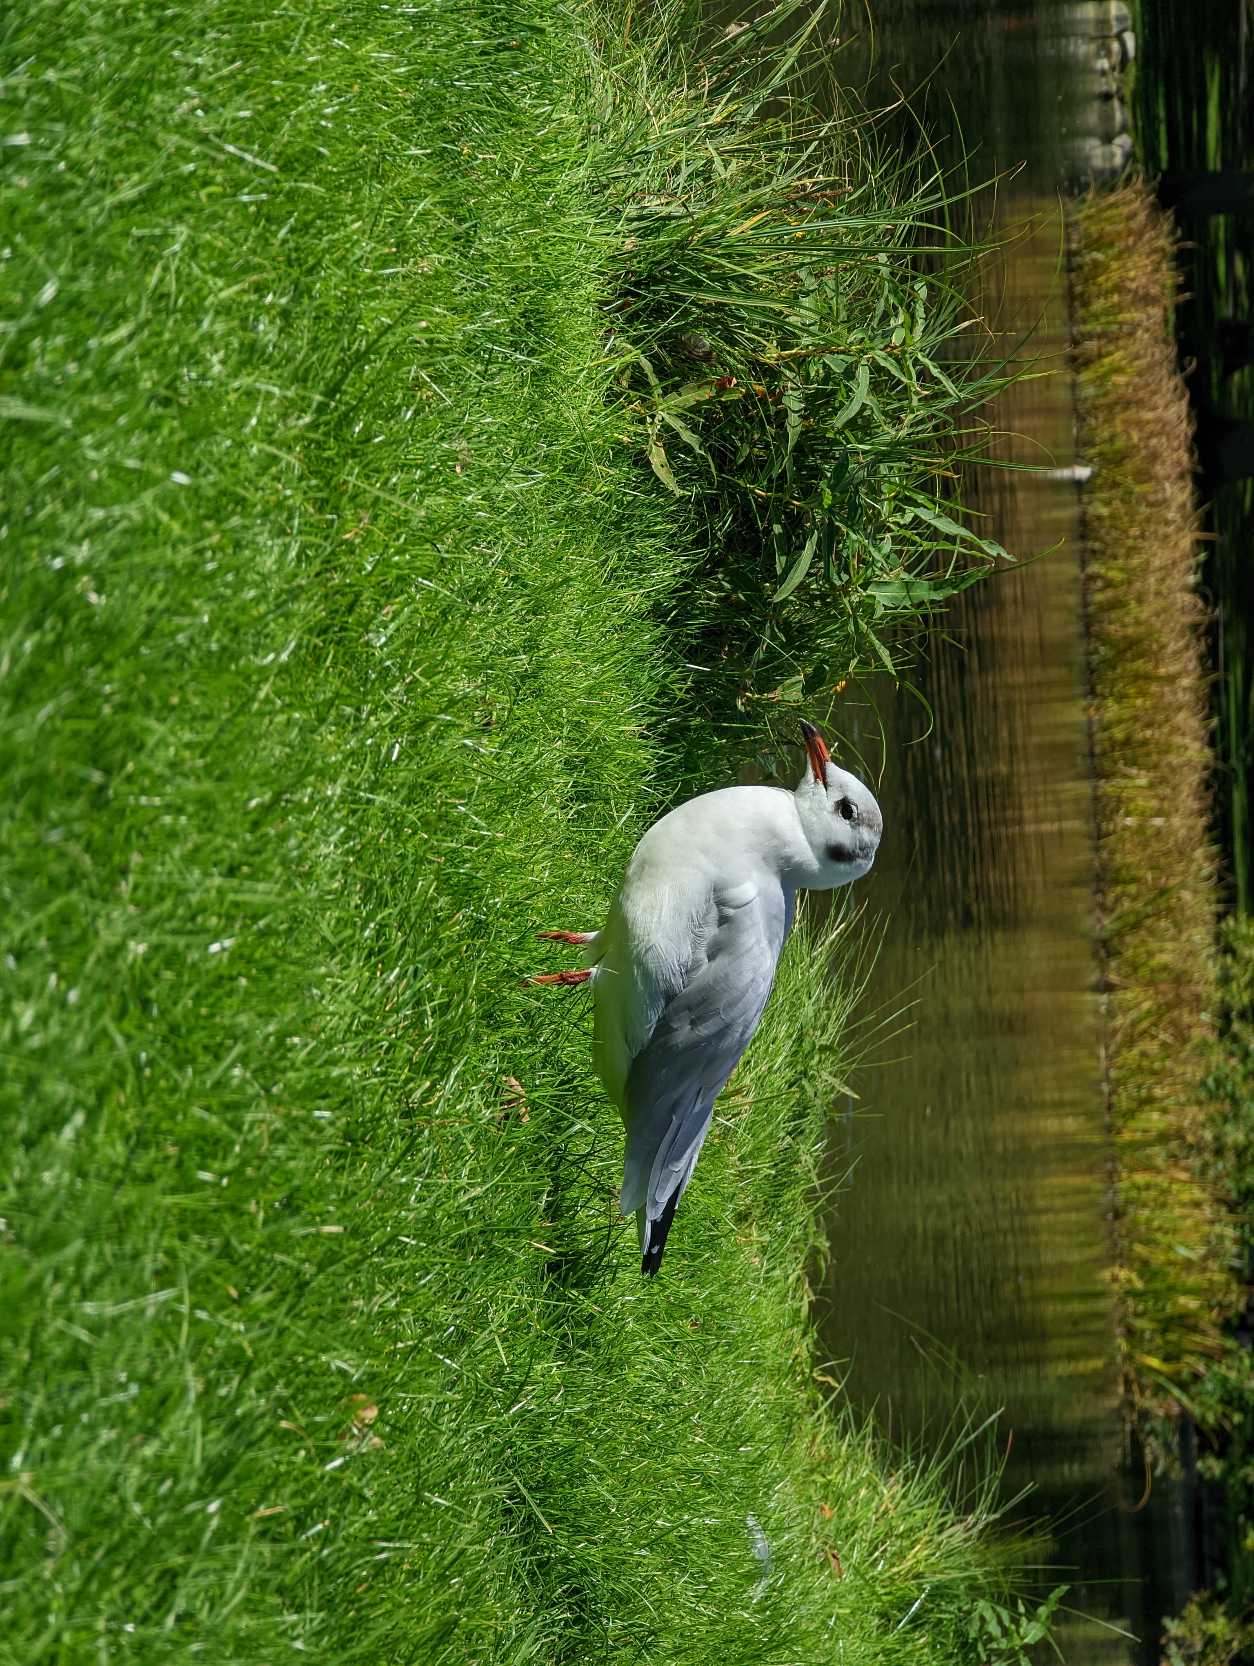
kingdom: Animalia
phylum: Chordata
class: Aves
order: Charadriiformes
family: Laridae
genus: Chroicocephalus
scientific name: Chroicocephalus ridibundus
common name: Hættemåge
